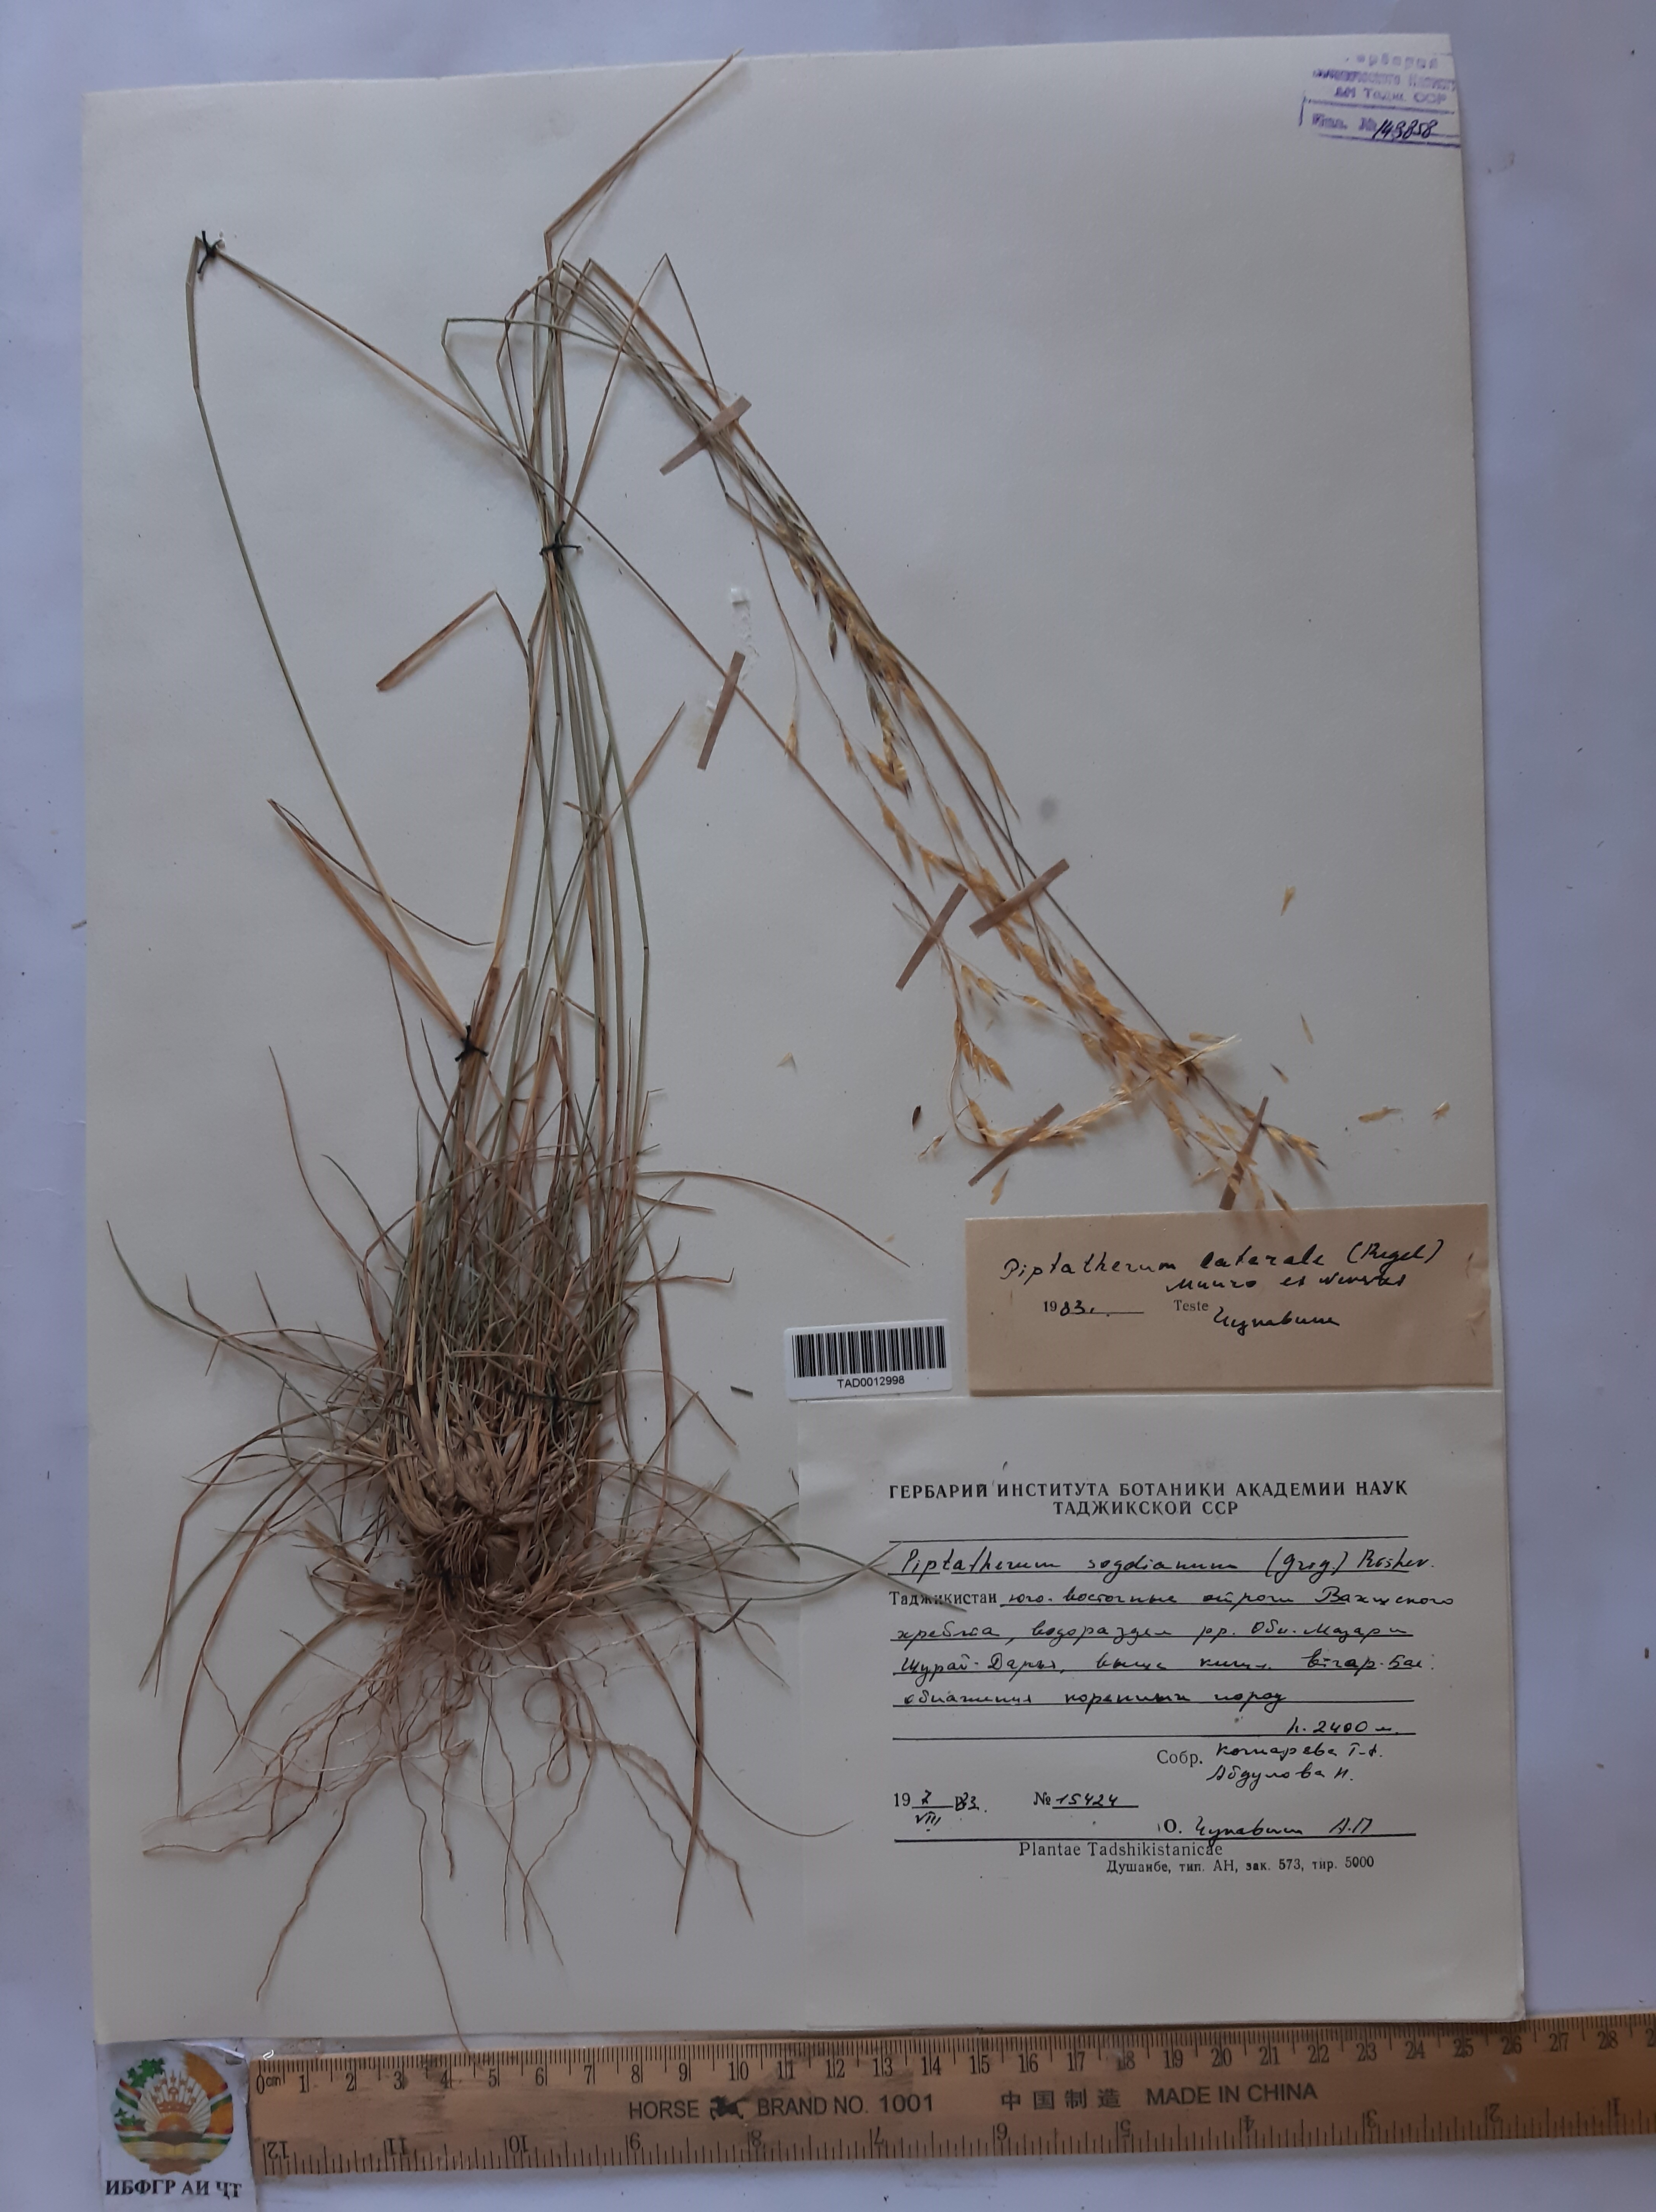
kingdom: Plantae
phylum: Tracheophyta
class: Liliopsida
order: Poales
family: Poaceae
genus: Piptatherum
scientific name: Piptatherum laterale
